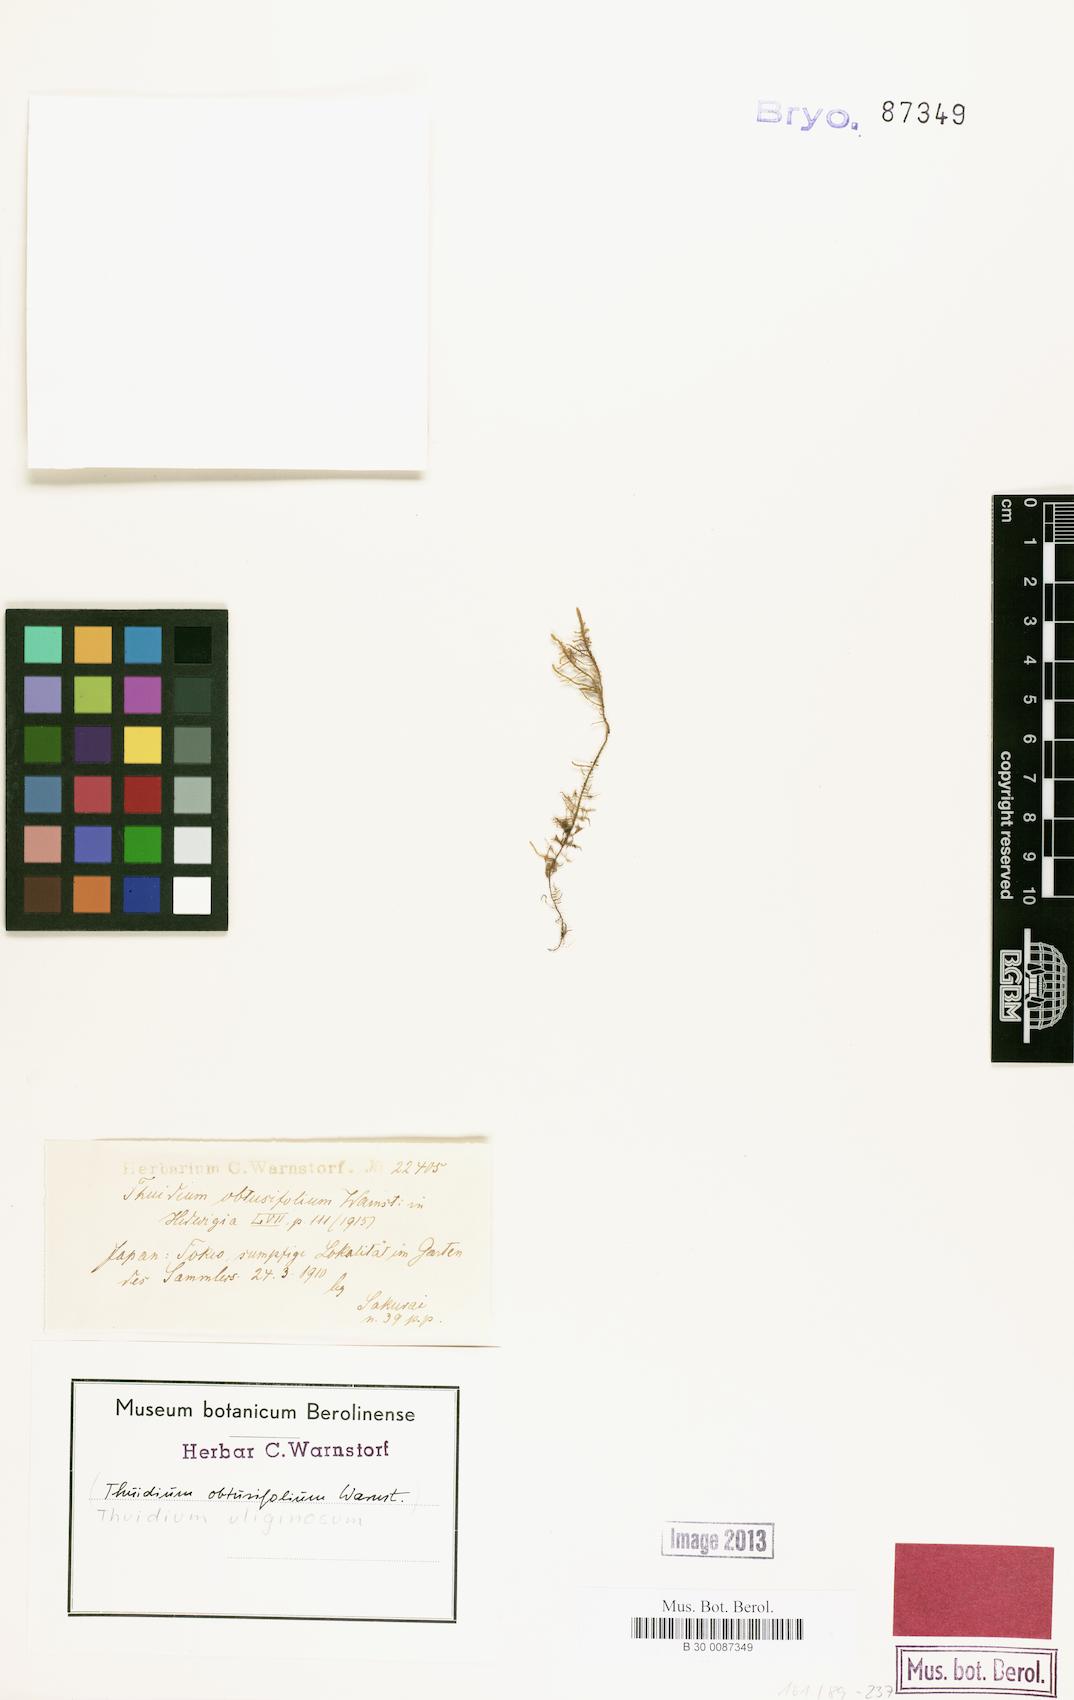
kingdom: Plantae
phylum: Bryophyta
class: Bryopsida
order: Hypnales
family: Thuidiaceae
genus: Thuidium
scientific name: Thuidium delicatulum
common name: Delicate fern moss
